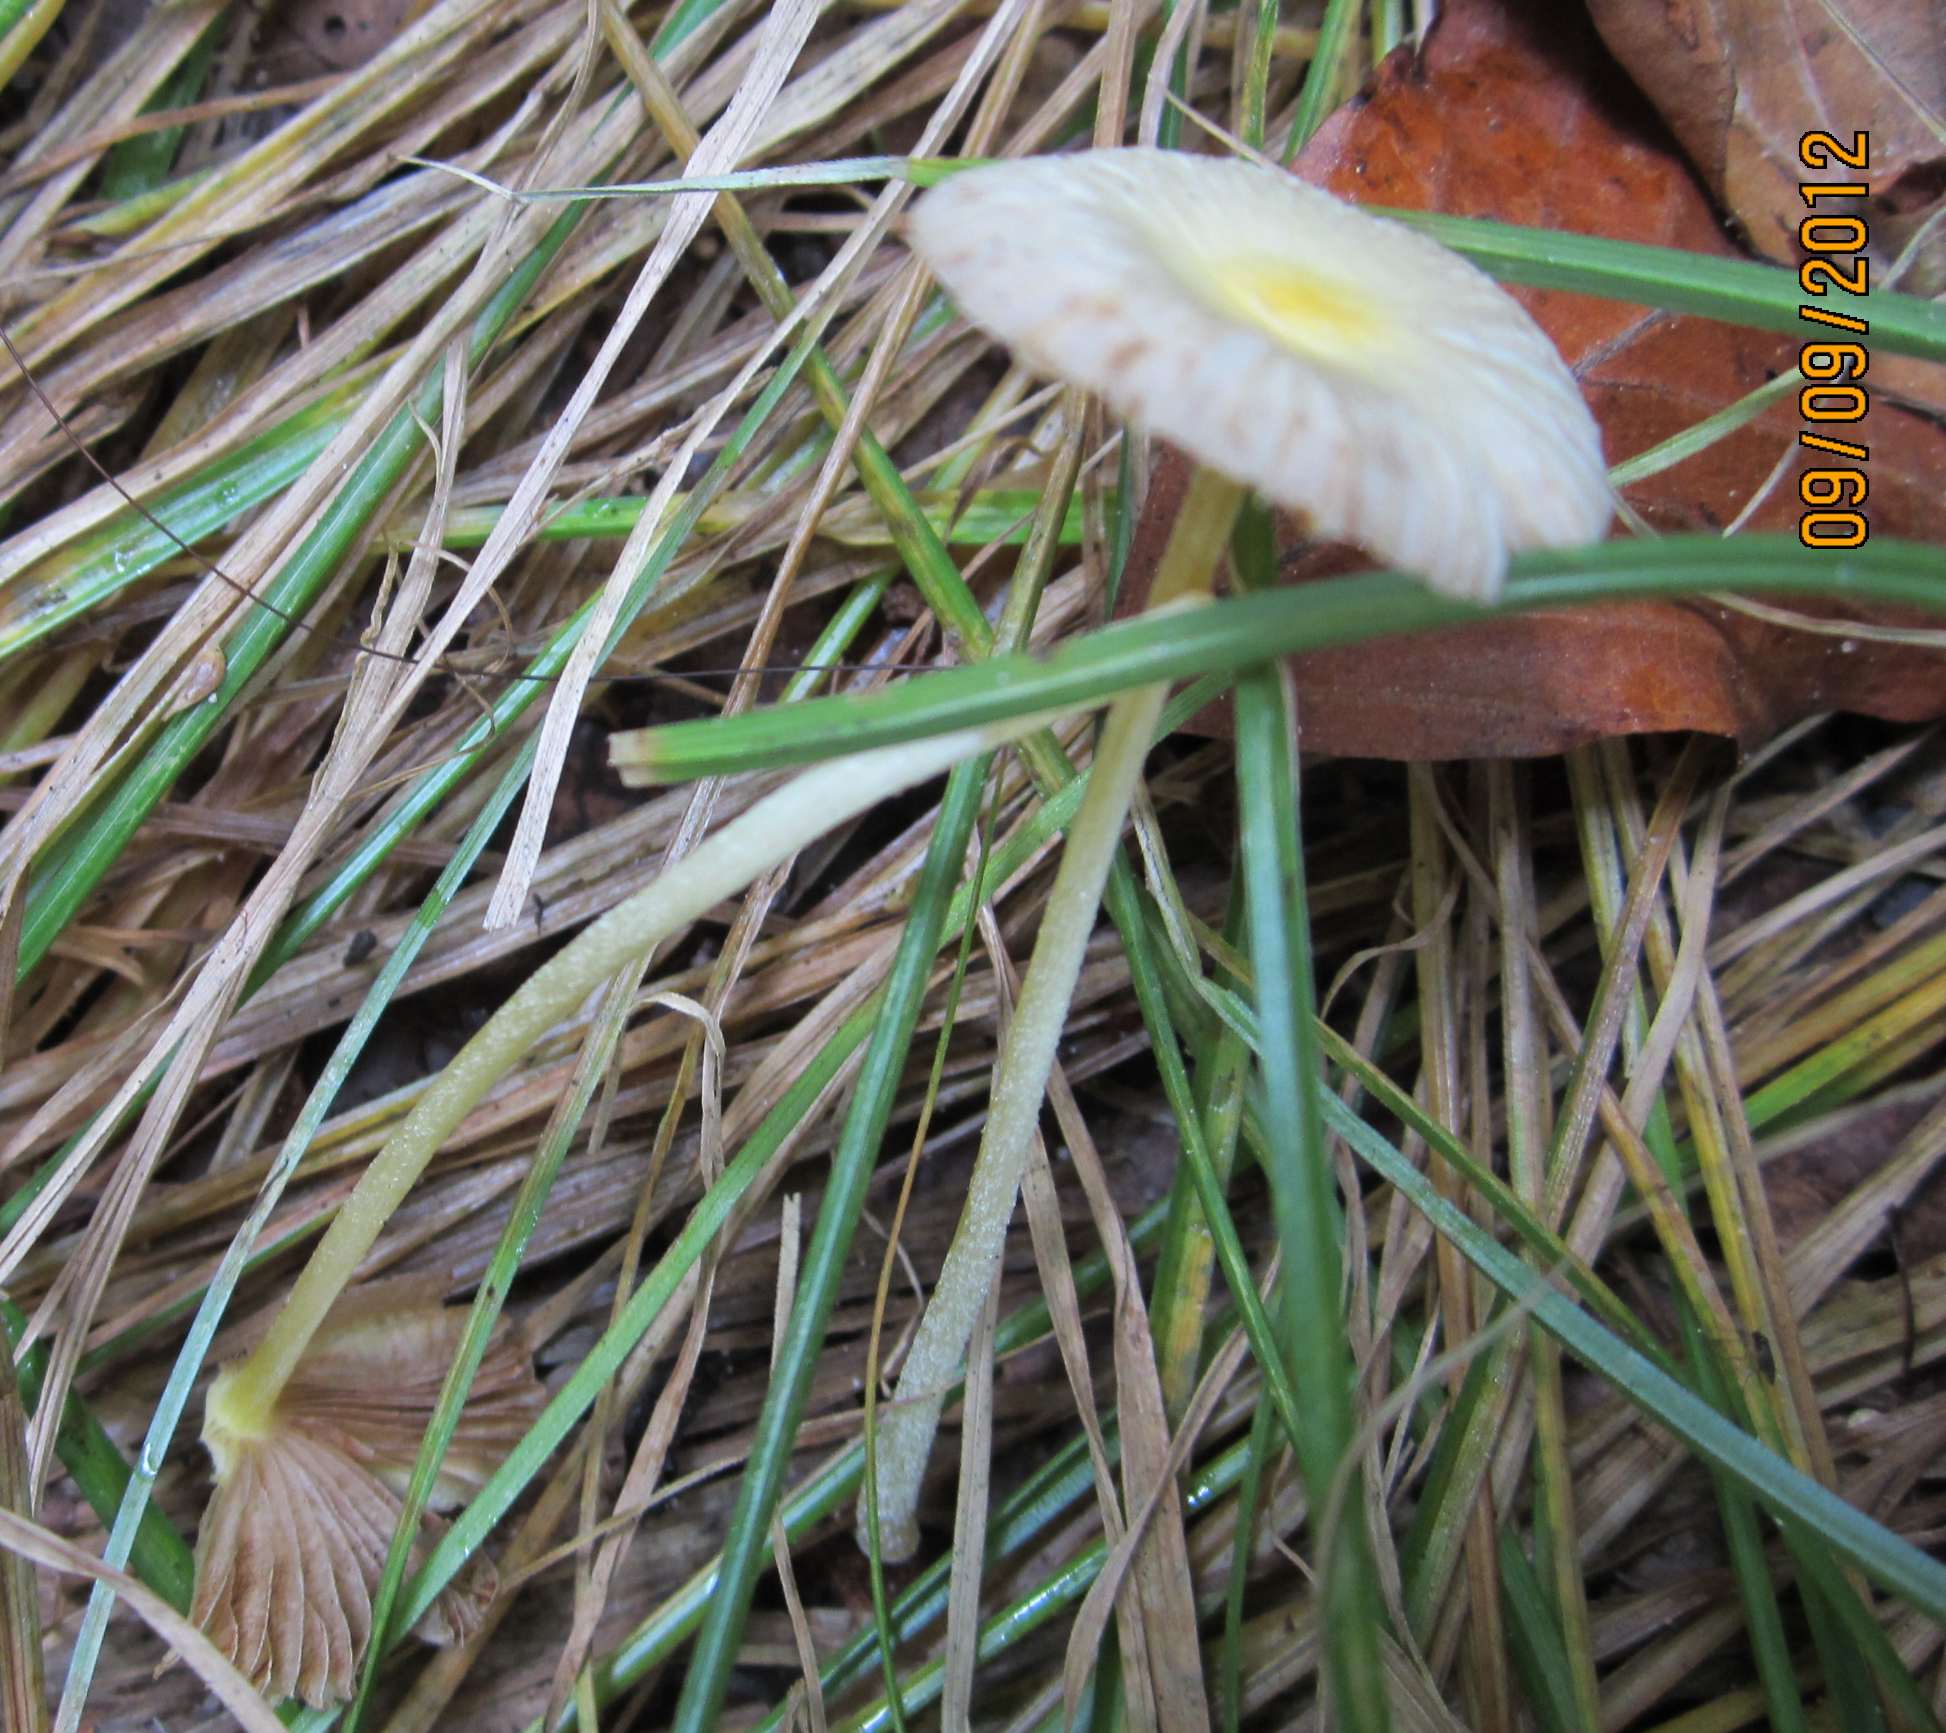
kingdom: Fungi
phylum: Basidiomycota
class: Agaricomycetes
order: Agaricales
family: Bolbitiaceae
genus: Bolbitius
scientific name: Bolbitius titubans
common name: almindelig gulhat
